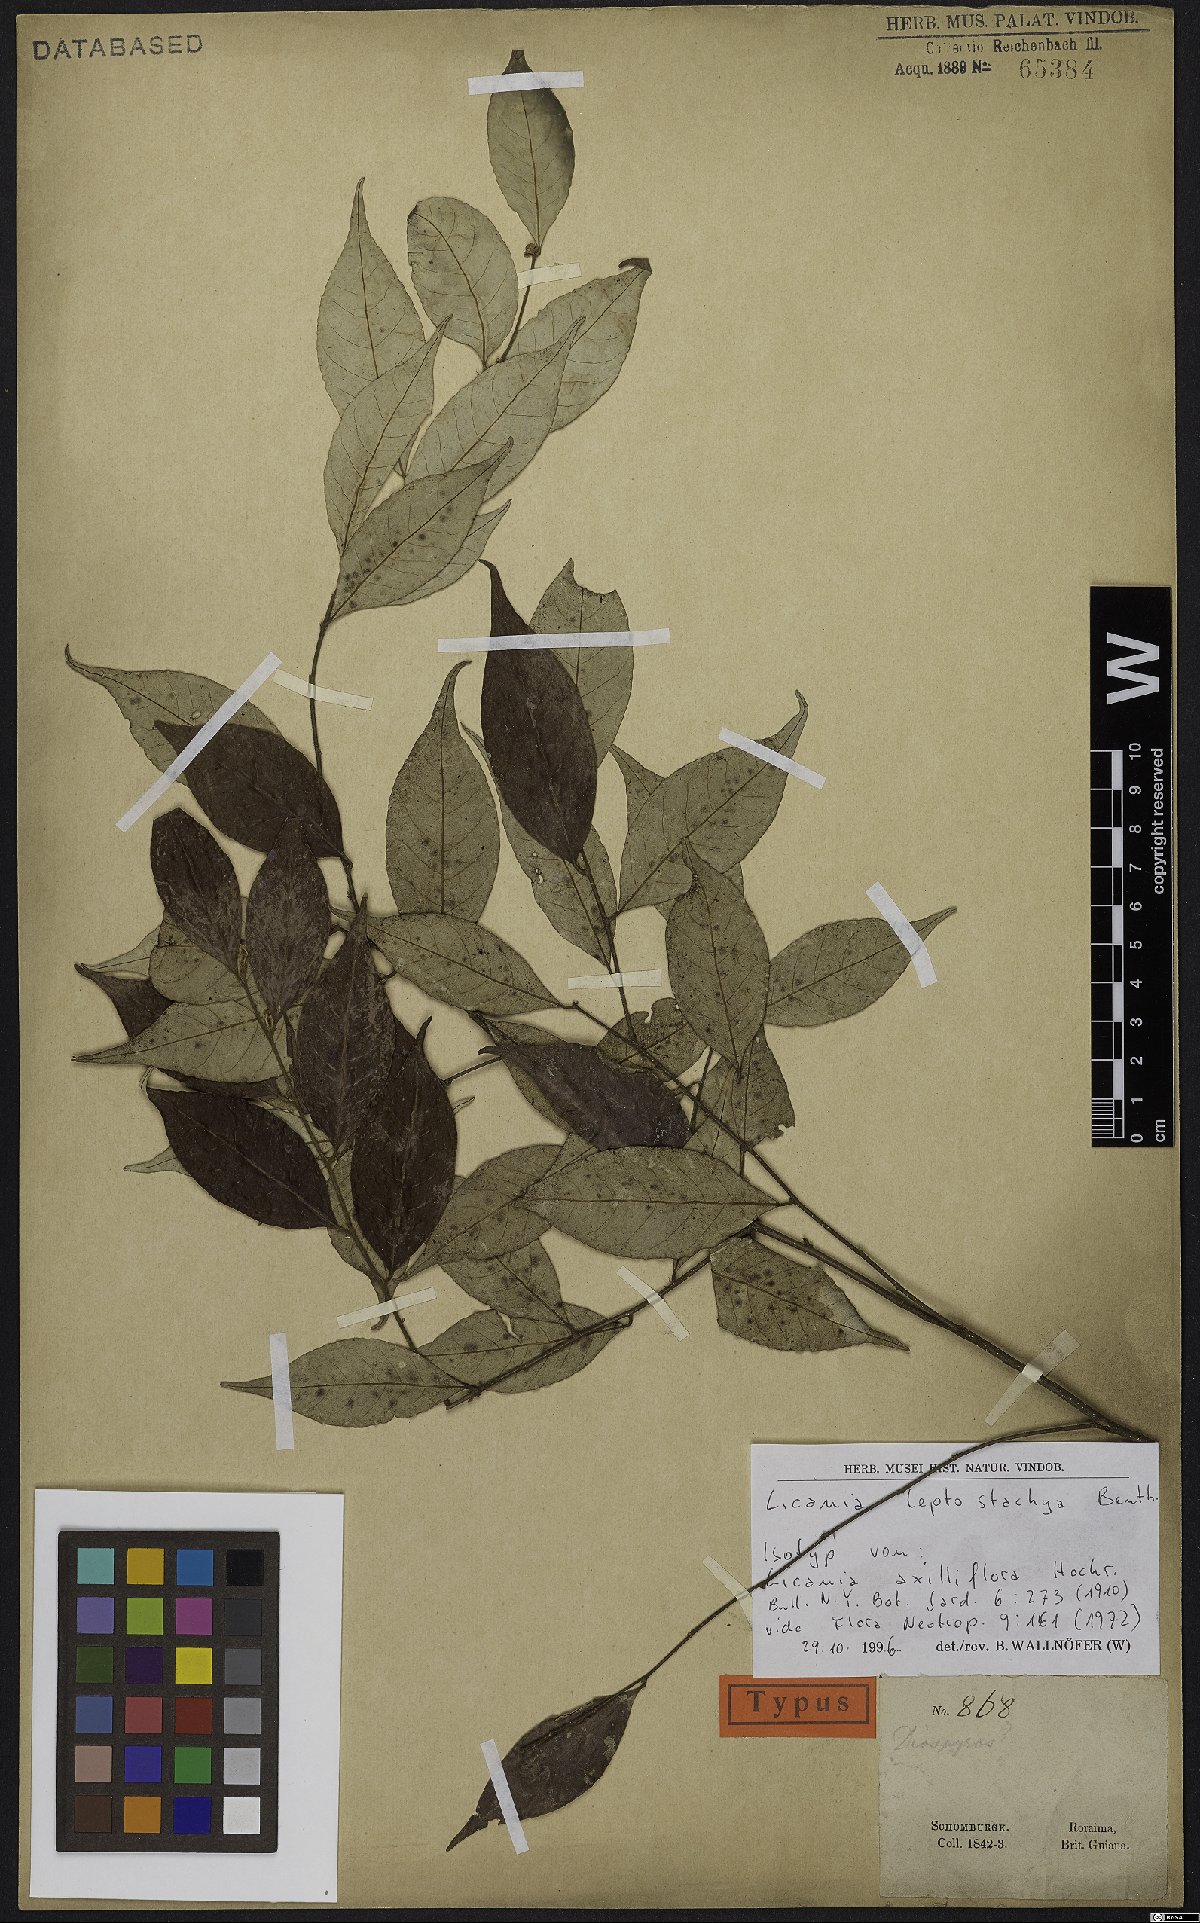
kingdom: Plantae
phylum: Tracheophyta
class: Magnoliopsida
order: Malpighiales
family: Chrysobalanaceae
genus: Licania
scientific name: Licania leptostachya
